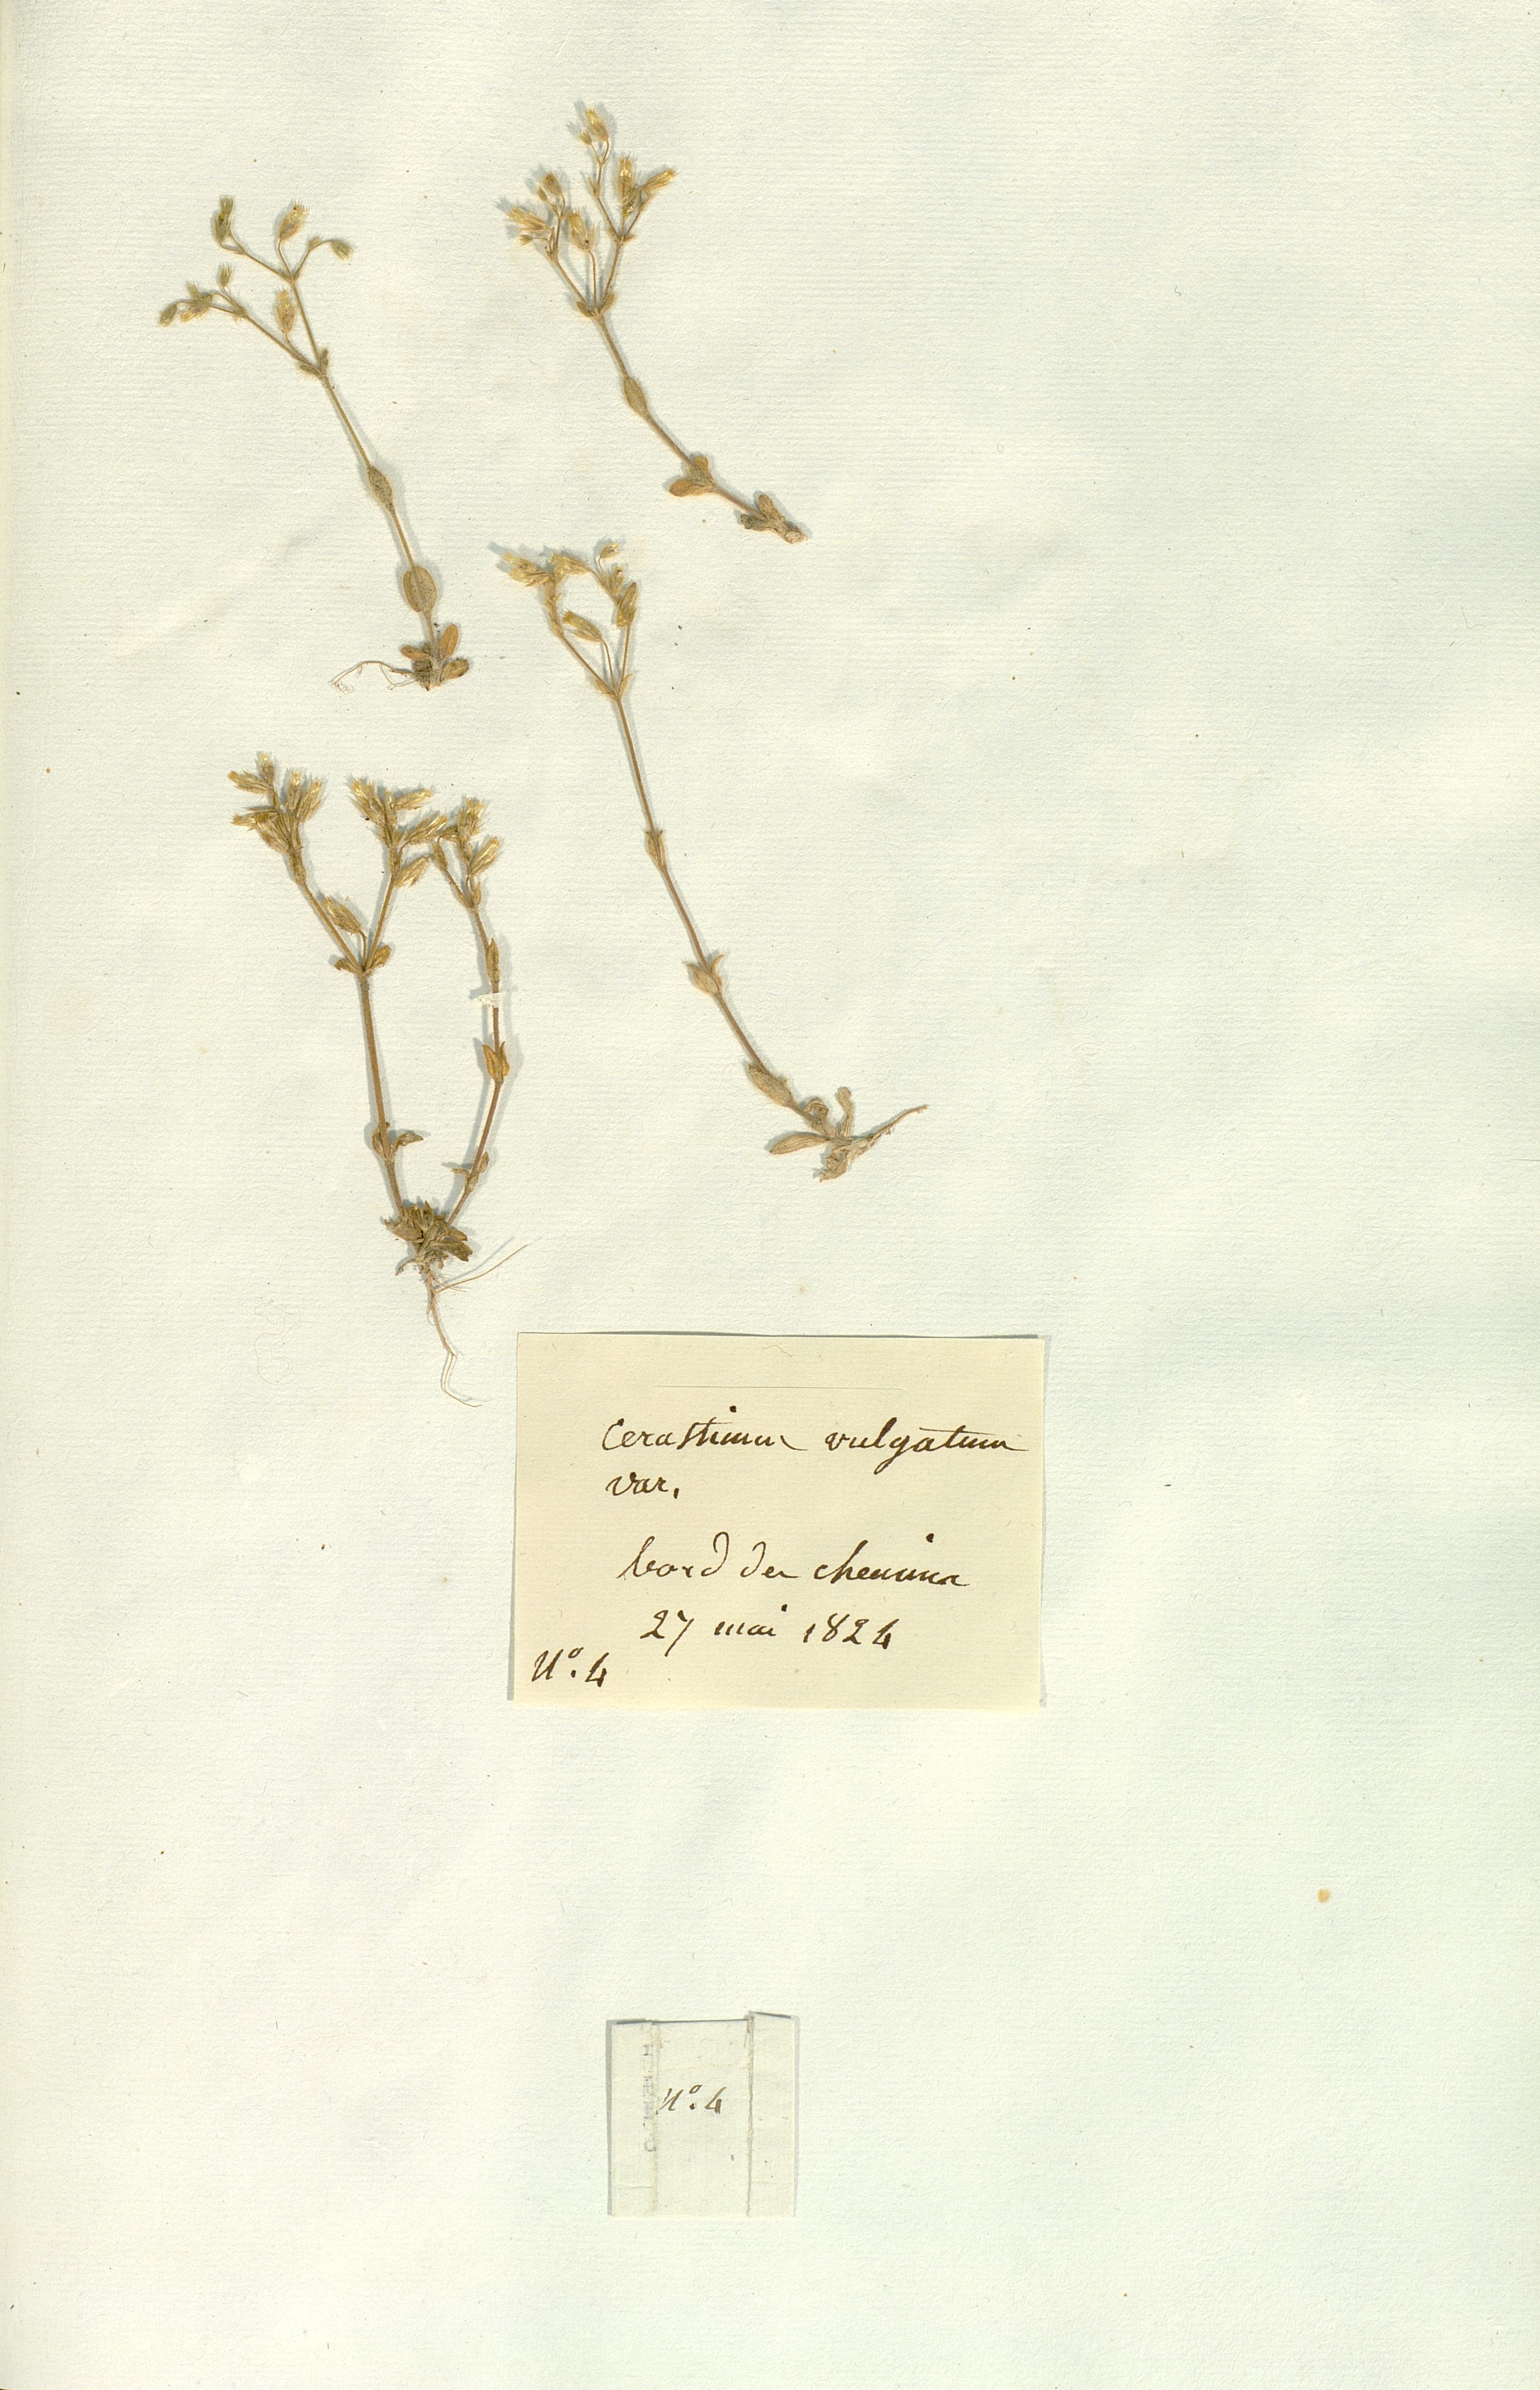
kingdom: Plantae
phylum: Tracheophyta
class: Magnoliopsida
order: Caryophyllales
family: Caryophyllaceae
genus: Cerastium
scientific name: Cerastium
